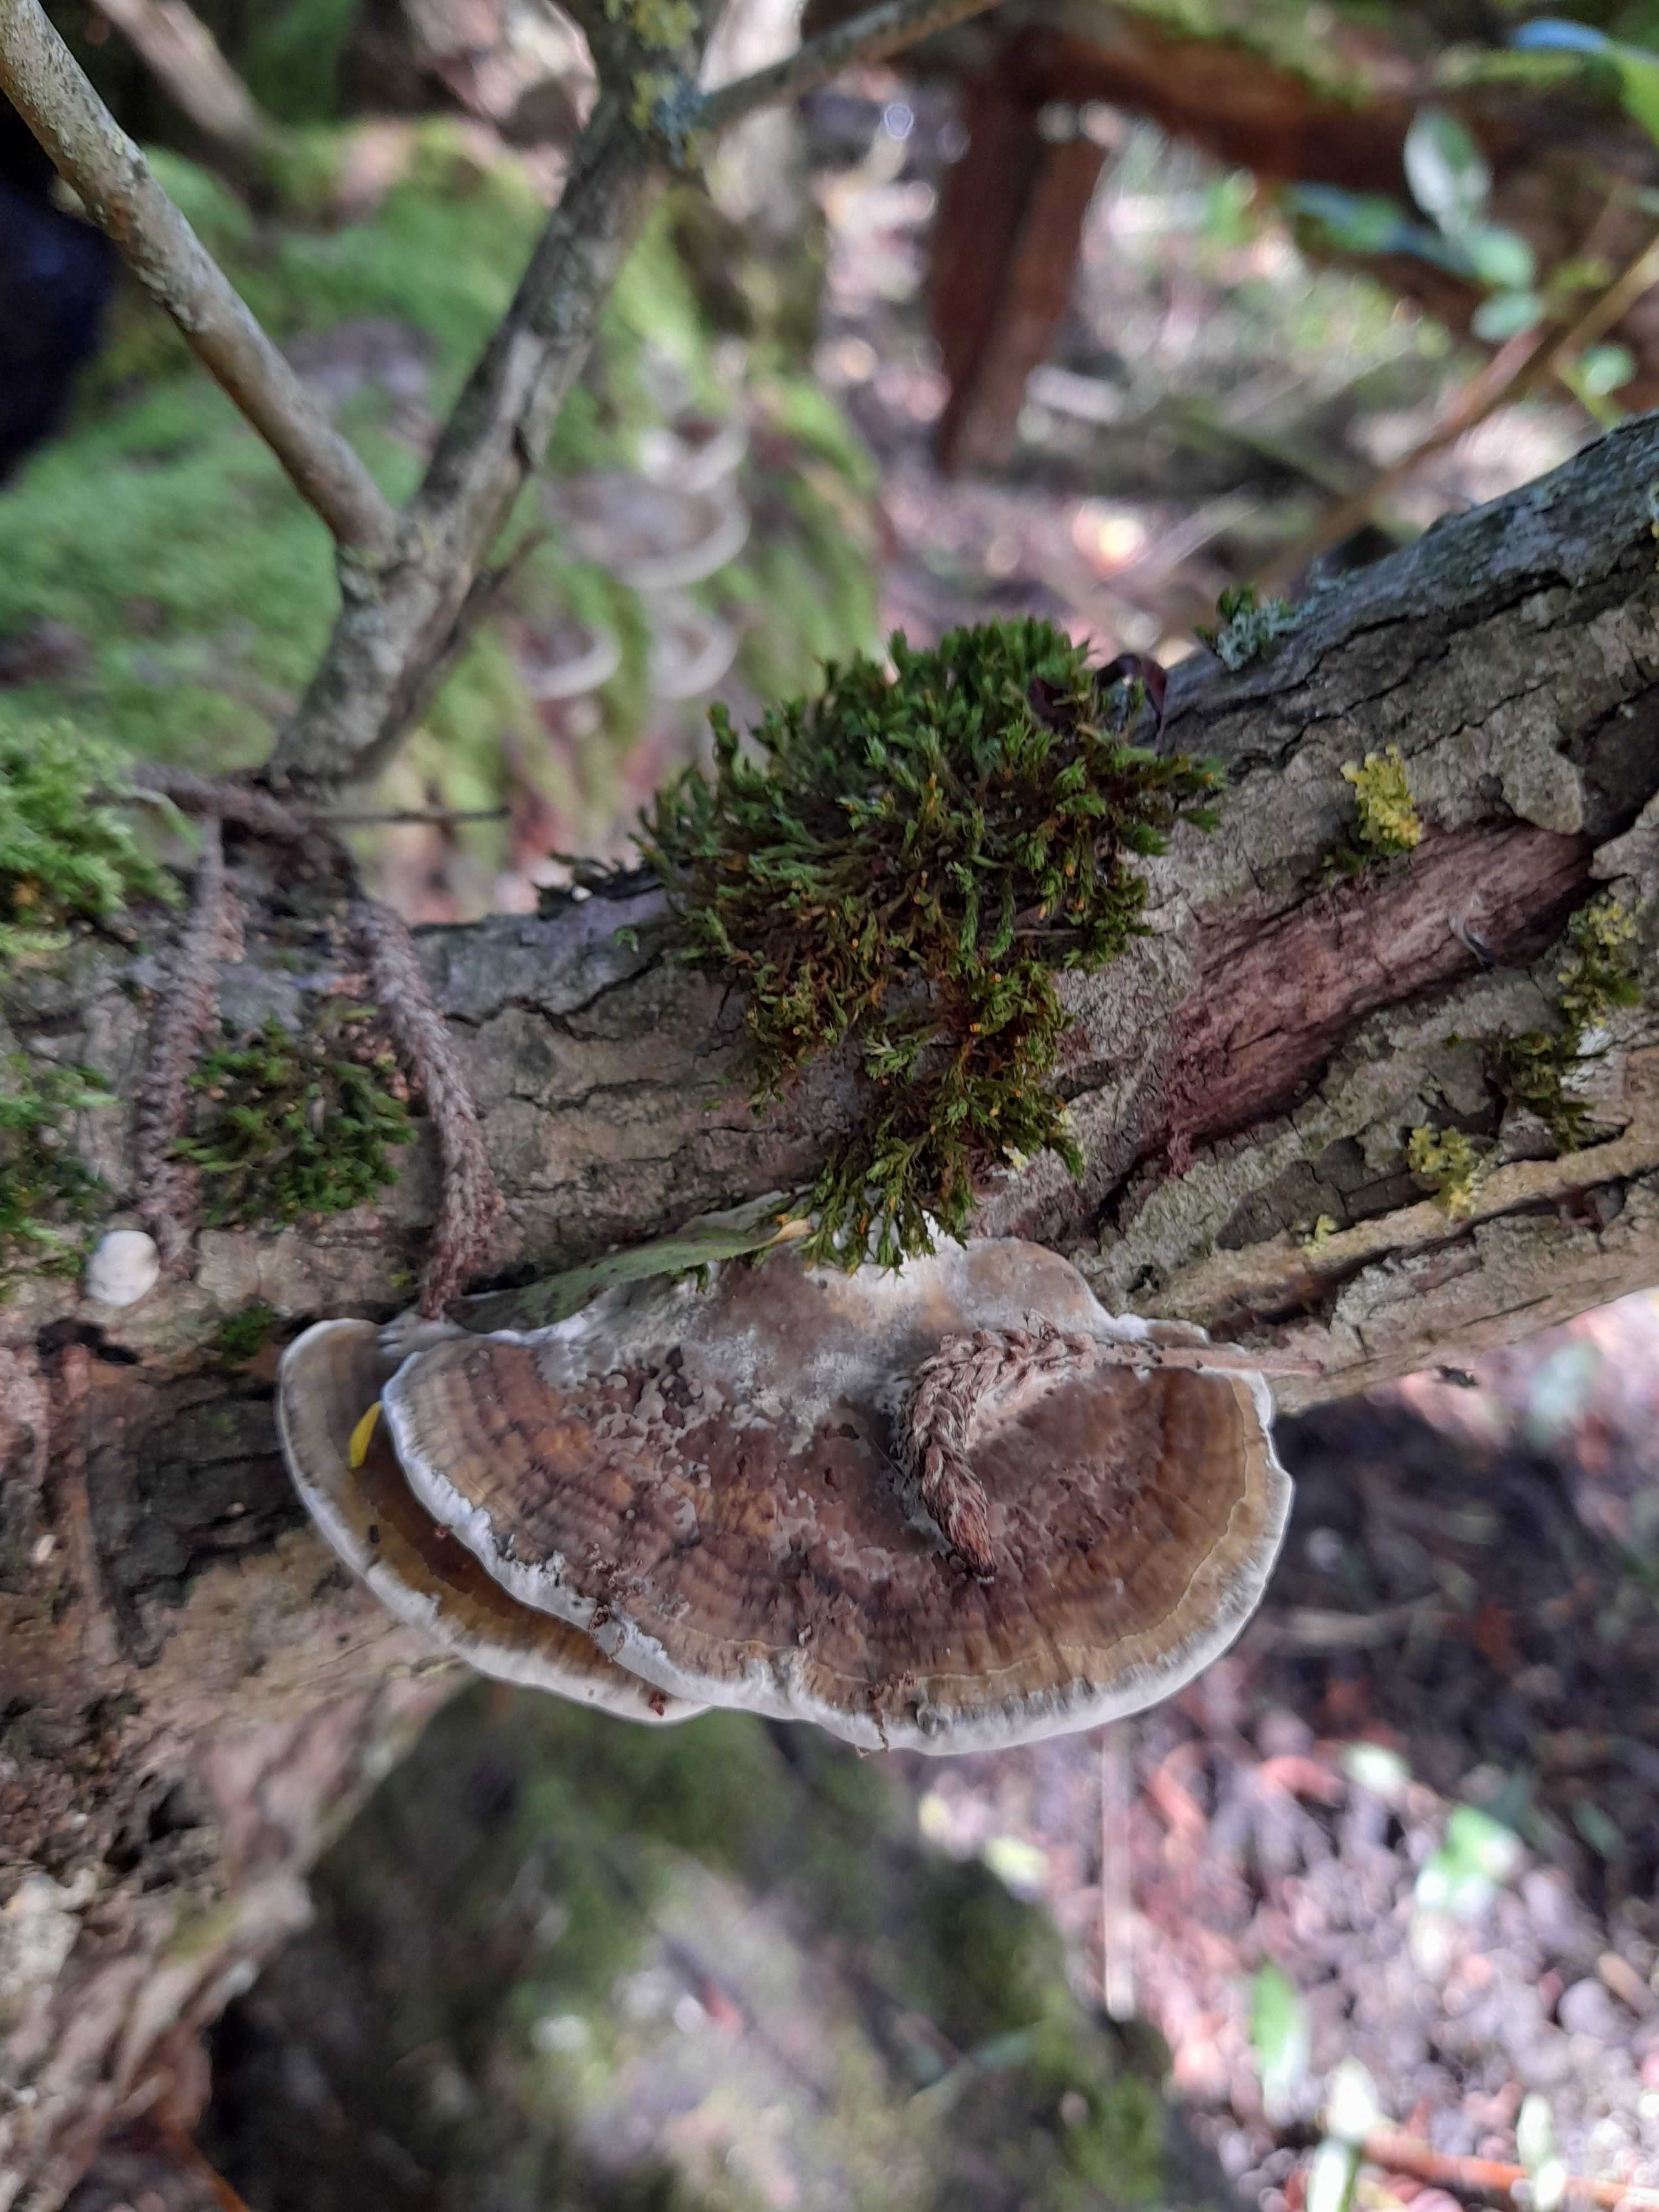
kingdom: Fungi
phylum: Basidiomycota
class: Agaricomycetes
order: Polyporales
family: Polyporaceae
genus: Daedaleopsis
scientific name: Daedaleopsis confragosa
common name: rødmende læderporesvamp
